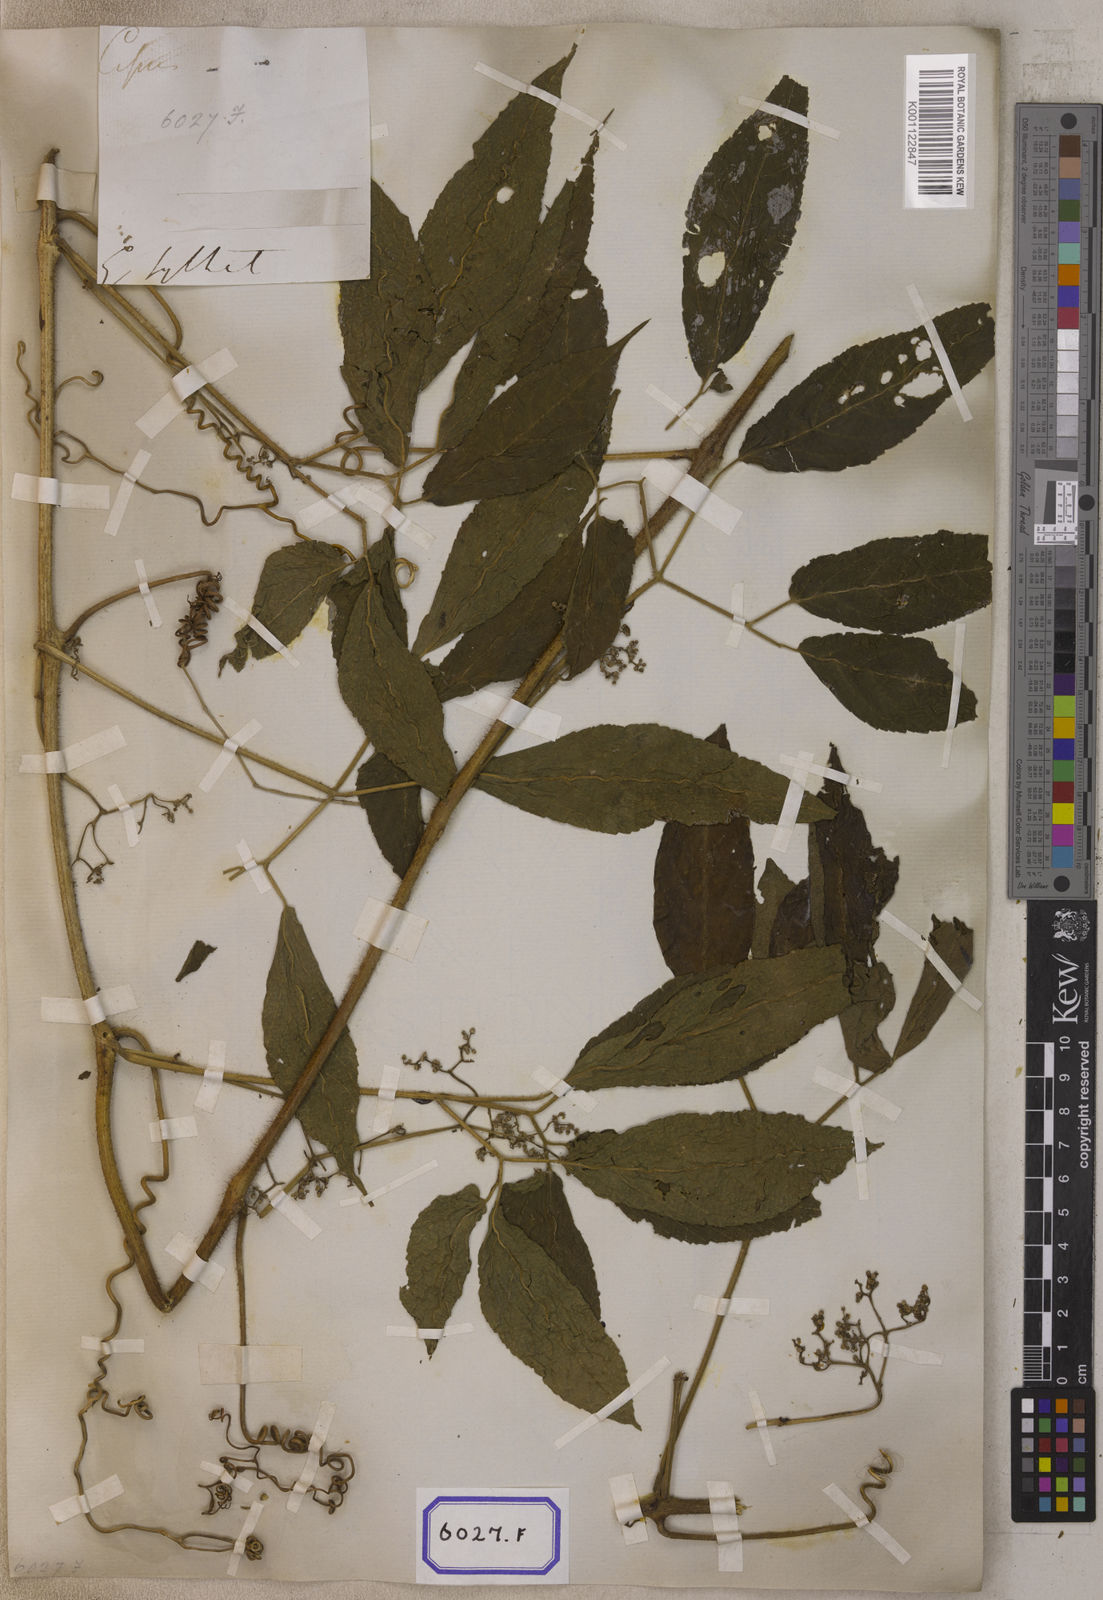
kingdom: Plantae
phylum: Tracheophyta
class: Magnoliopsida
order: Vitales
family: Vitaceae
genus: Cayratia
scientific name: Cayratia pedata
